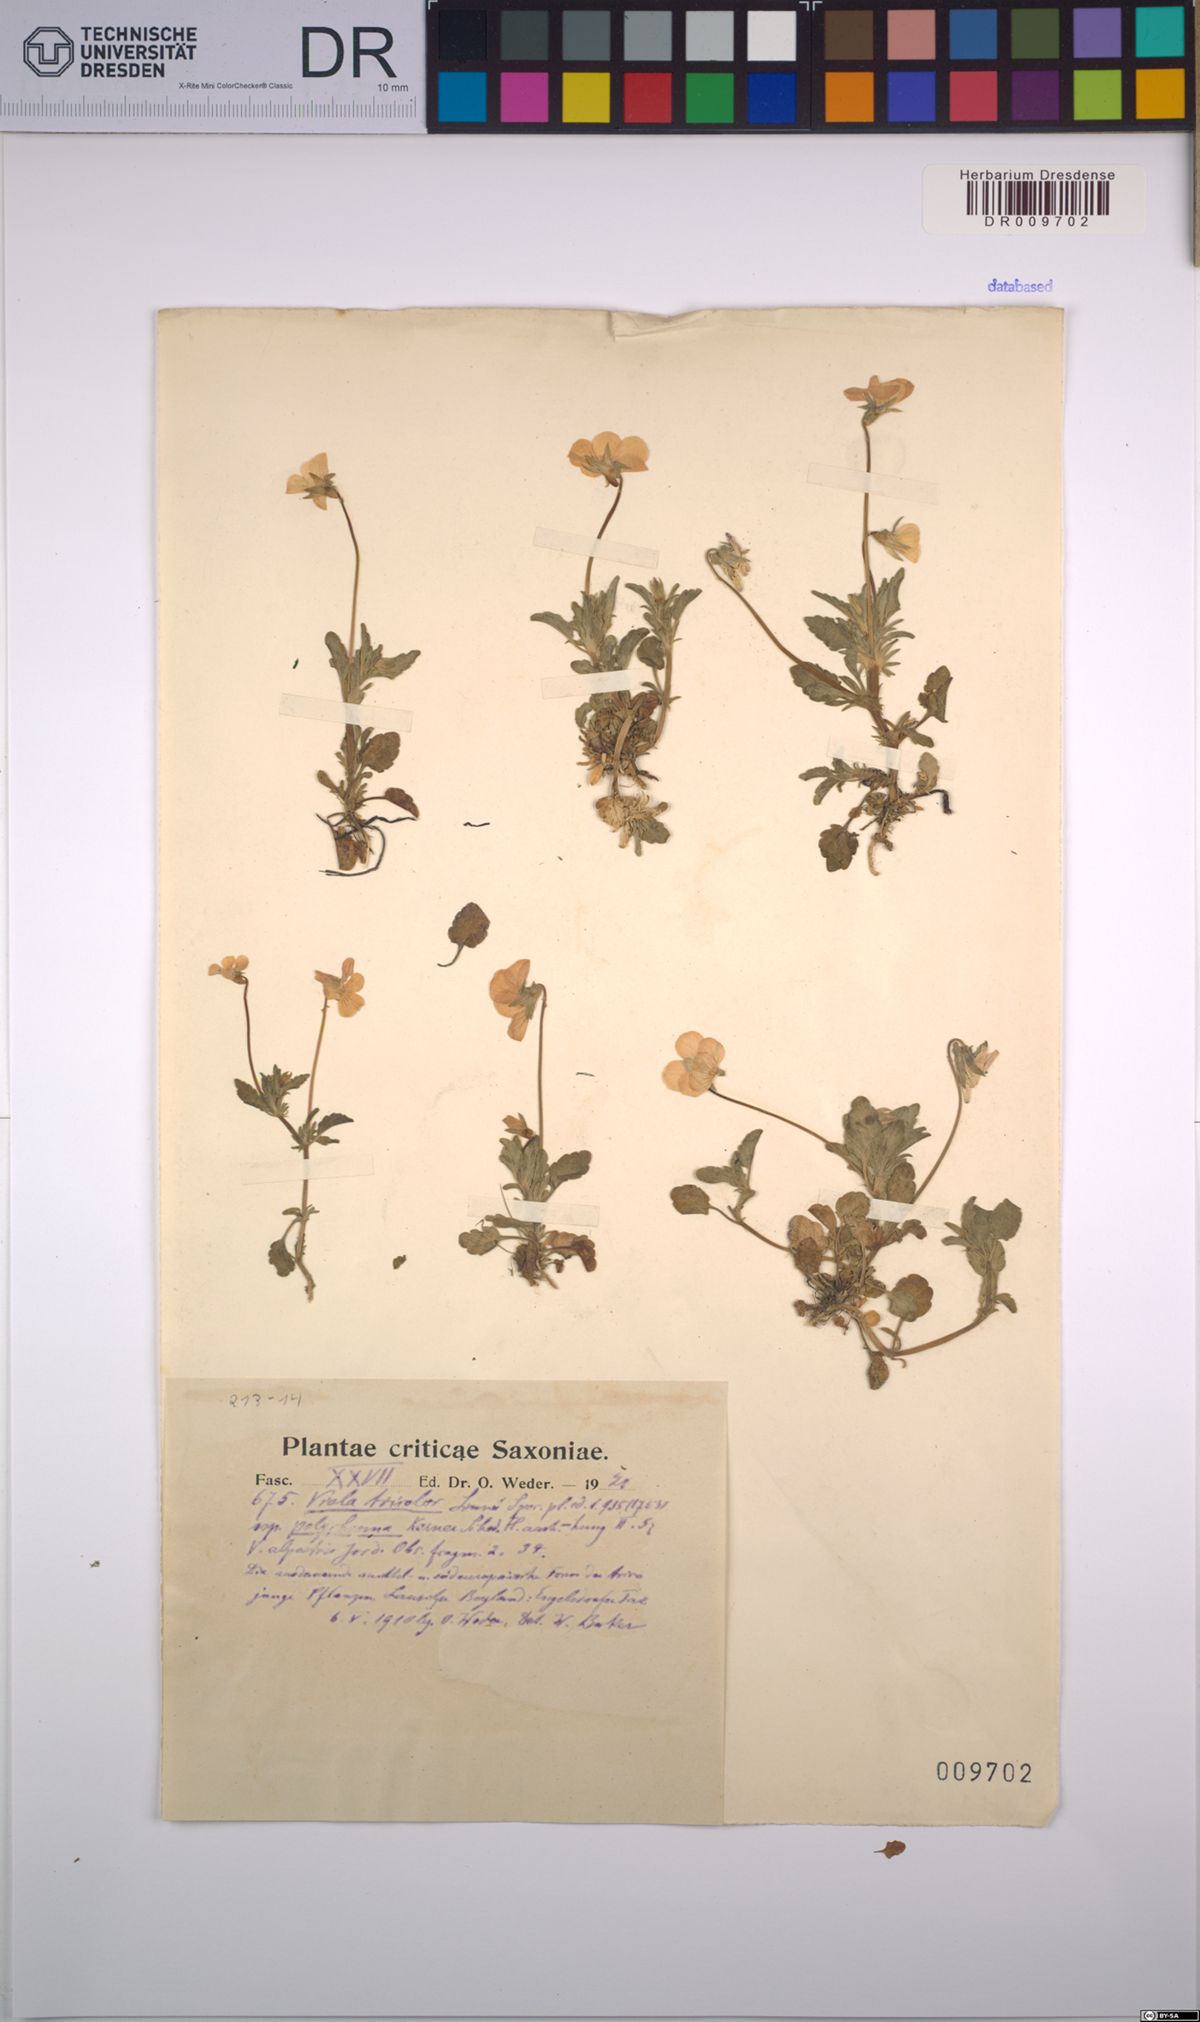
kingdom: Plantae
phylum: Tracheophyta
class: Magnoliopsida
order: Malpighiales
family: Violaceae
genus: Viola
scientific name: Viola tricolor
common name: Pansy
